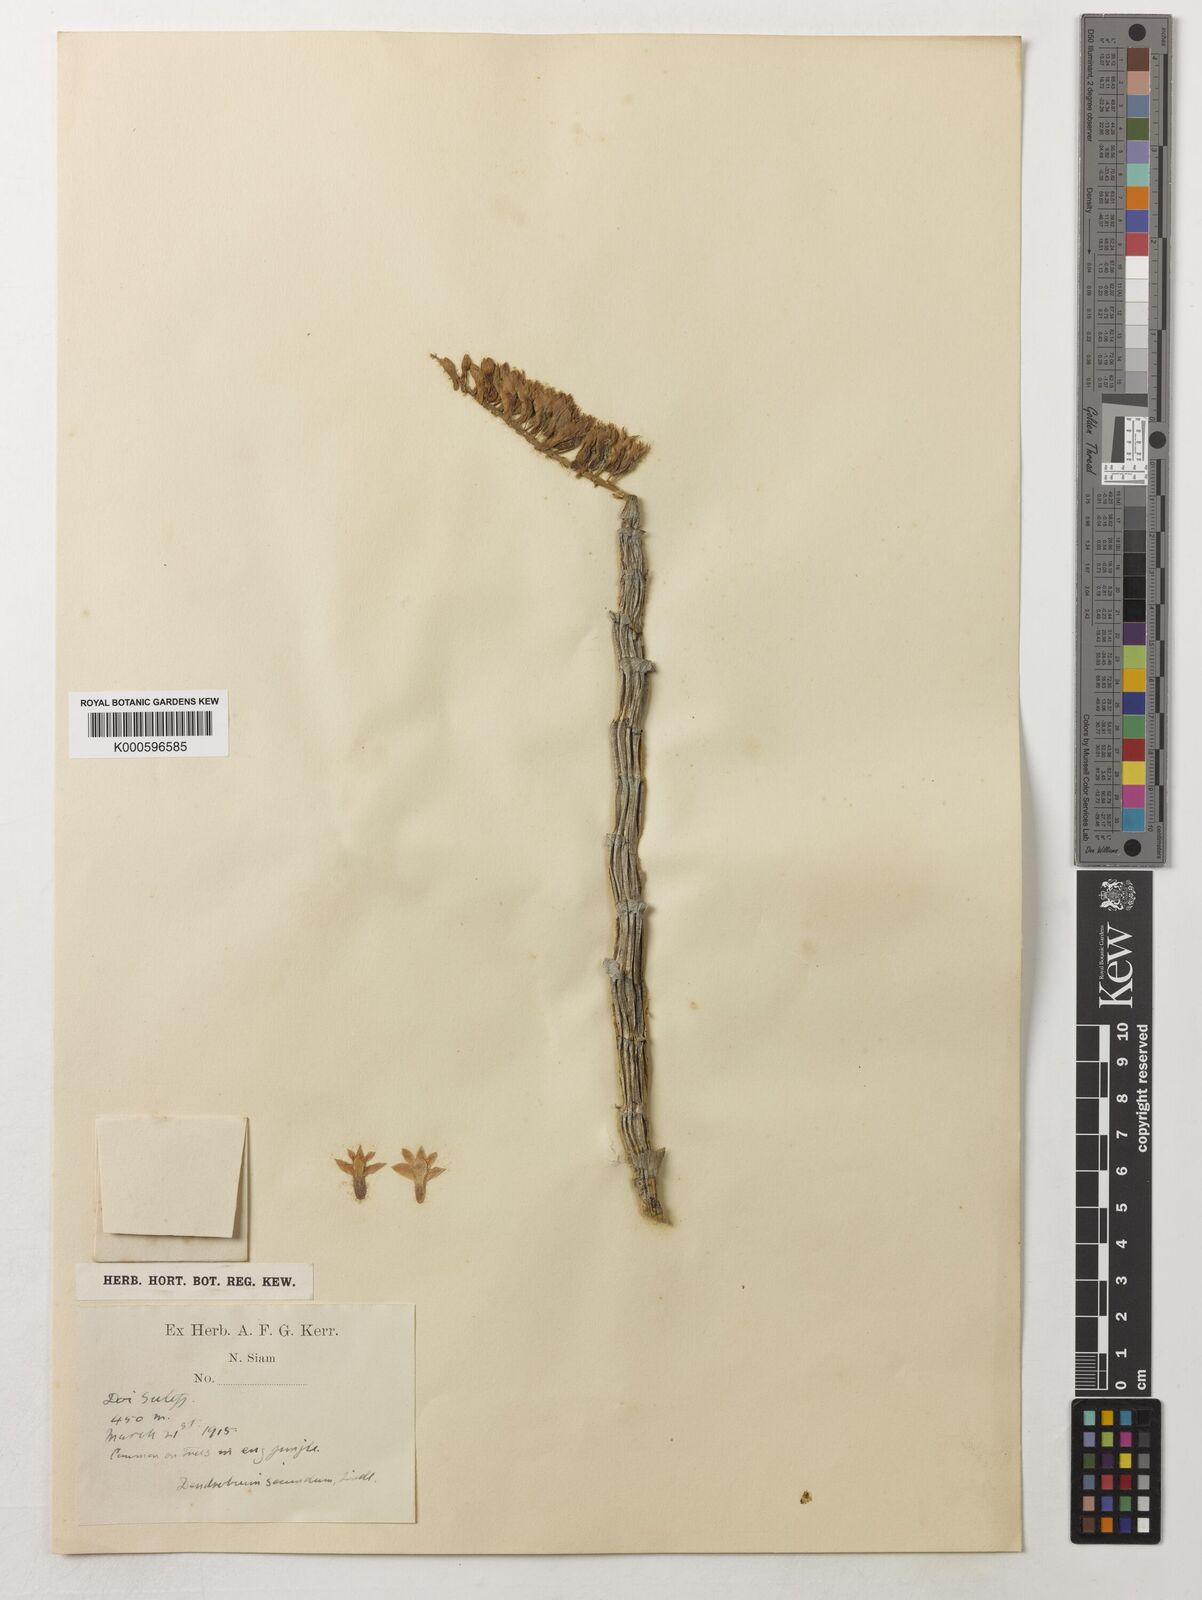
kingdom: Plantae
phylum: Tracheophyta
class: Liliopsida
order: Asparagales
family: Orchidaceae
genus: Dendrobium
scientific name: Dendrobium
